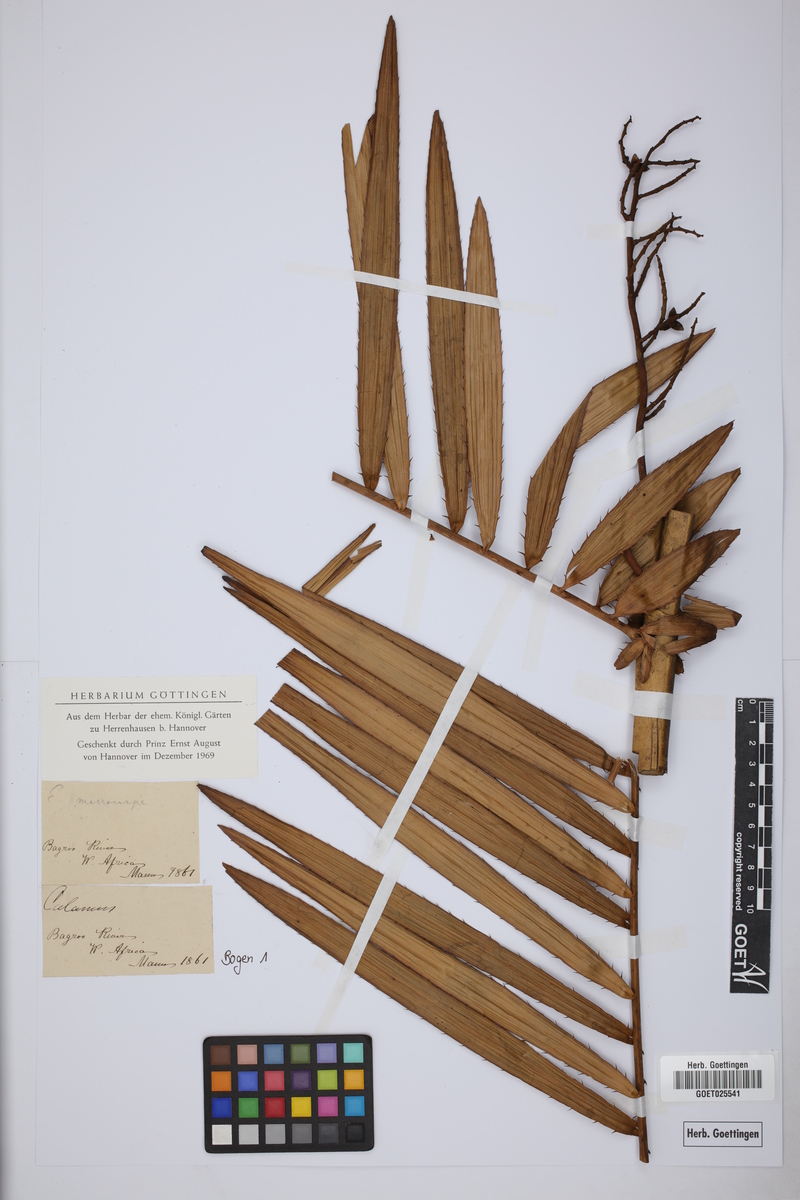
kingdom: Plantae
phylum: Tracheophyta
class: Liliopsida
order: Arecales
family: Arecaceae
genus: Eremospatha
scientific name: Eremospatha macrocarpa
